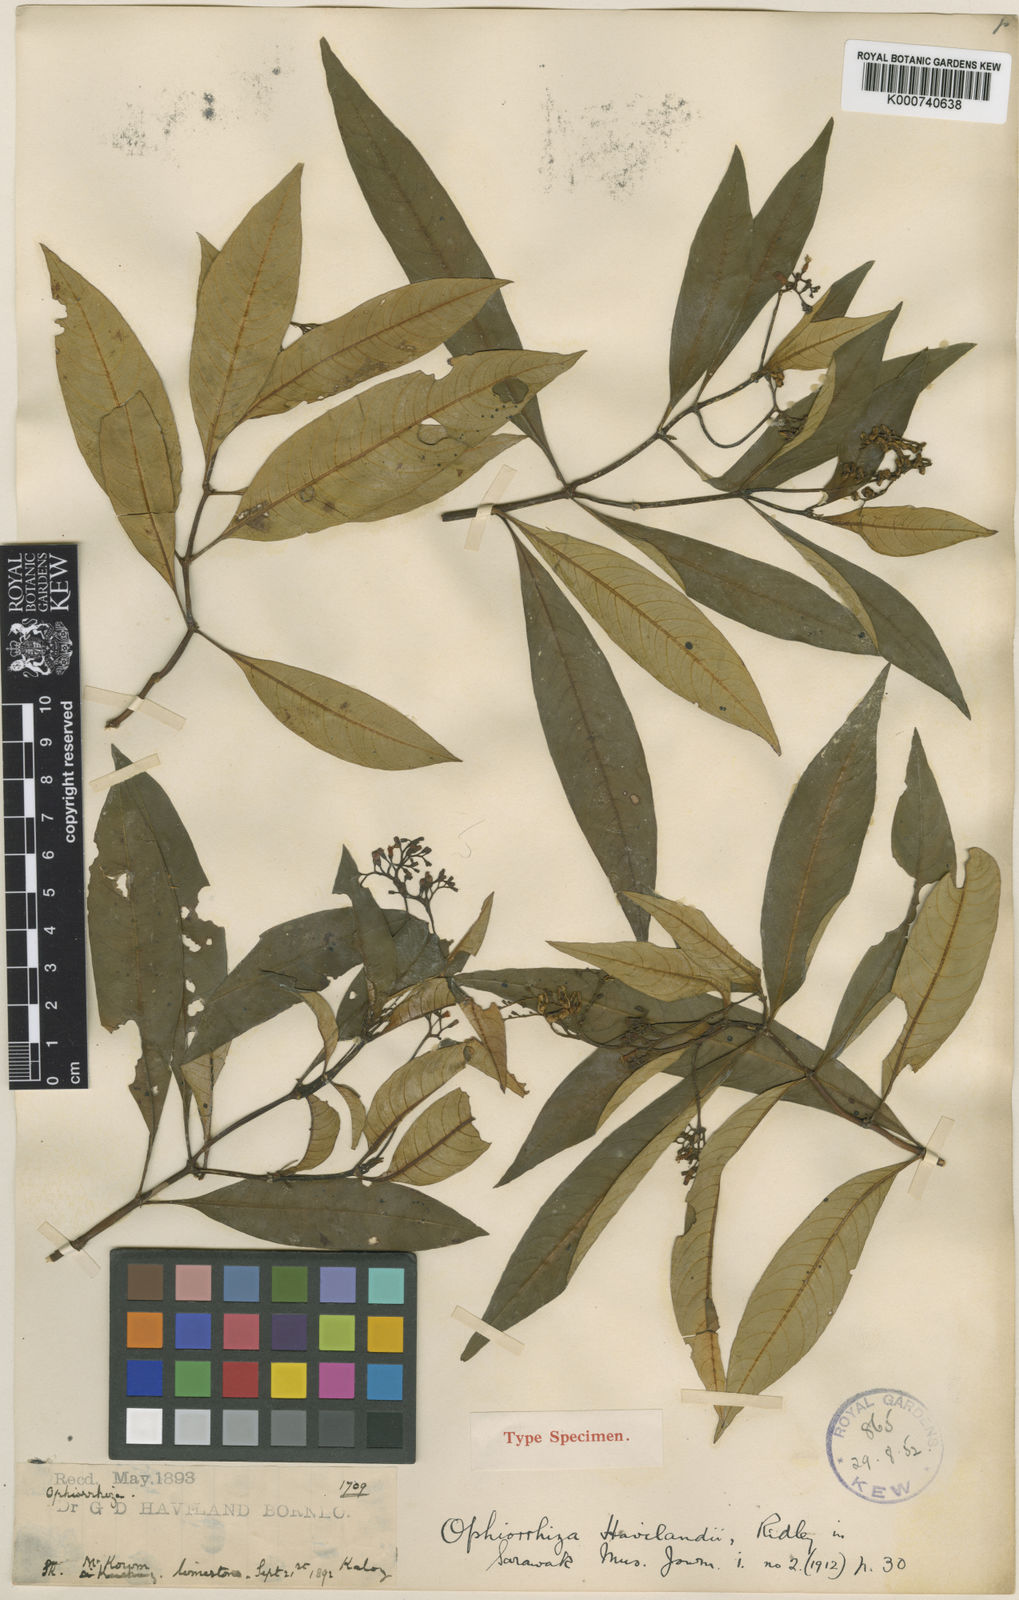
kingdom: Plantae
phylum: Tracheophyta
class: Magnoliopsida
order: Gentianales
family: Rubiaceae
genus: Ophiorrhiza
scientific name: Ophiorrhiza havilandii
